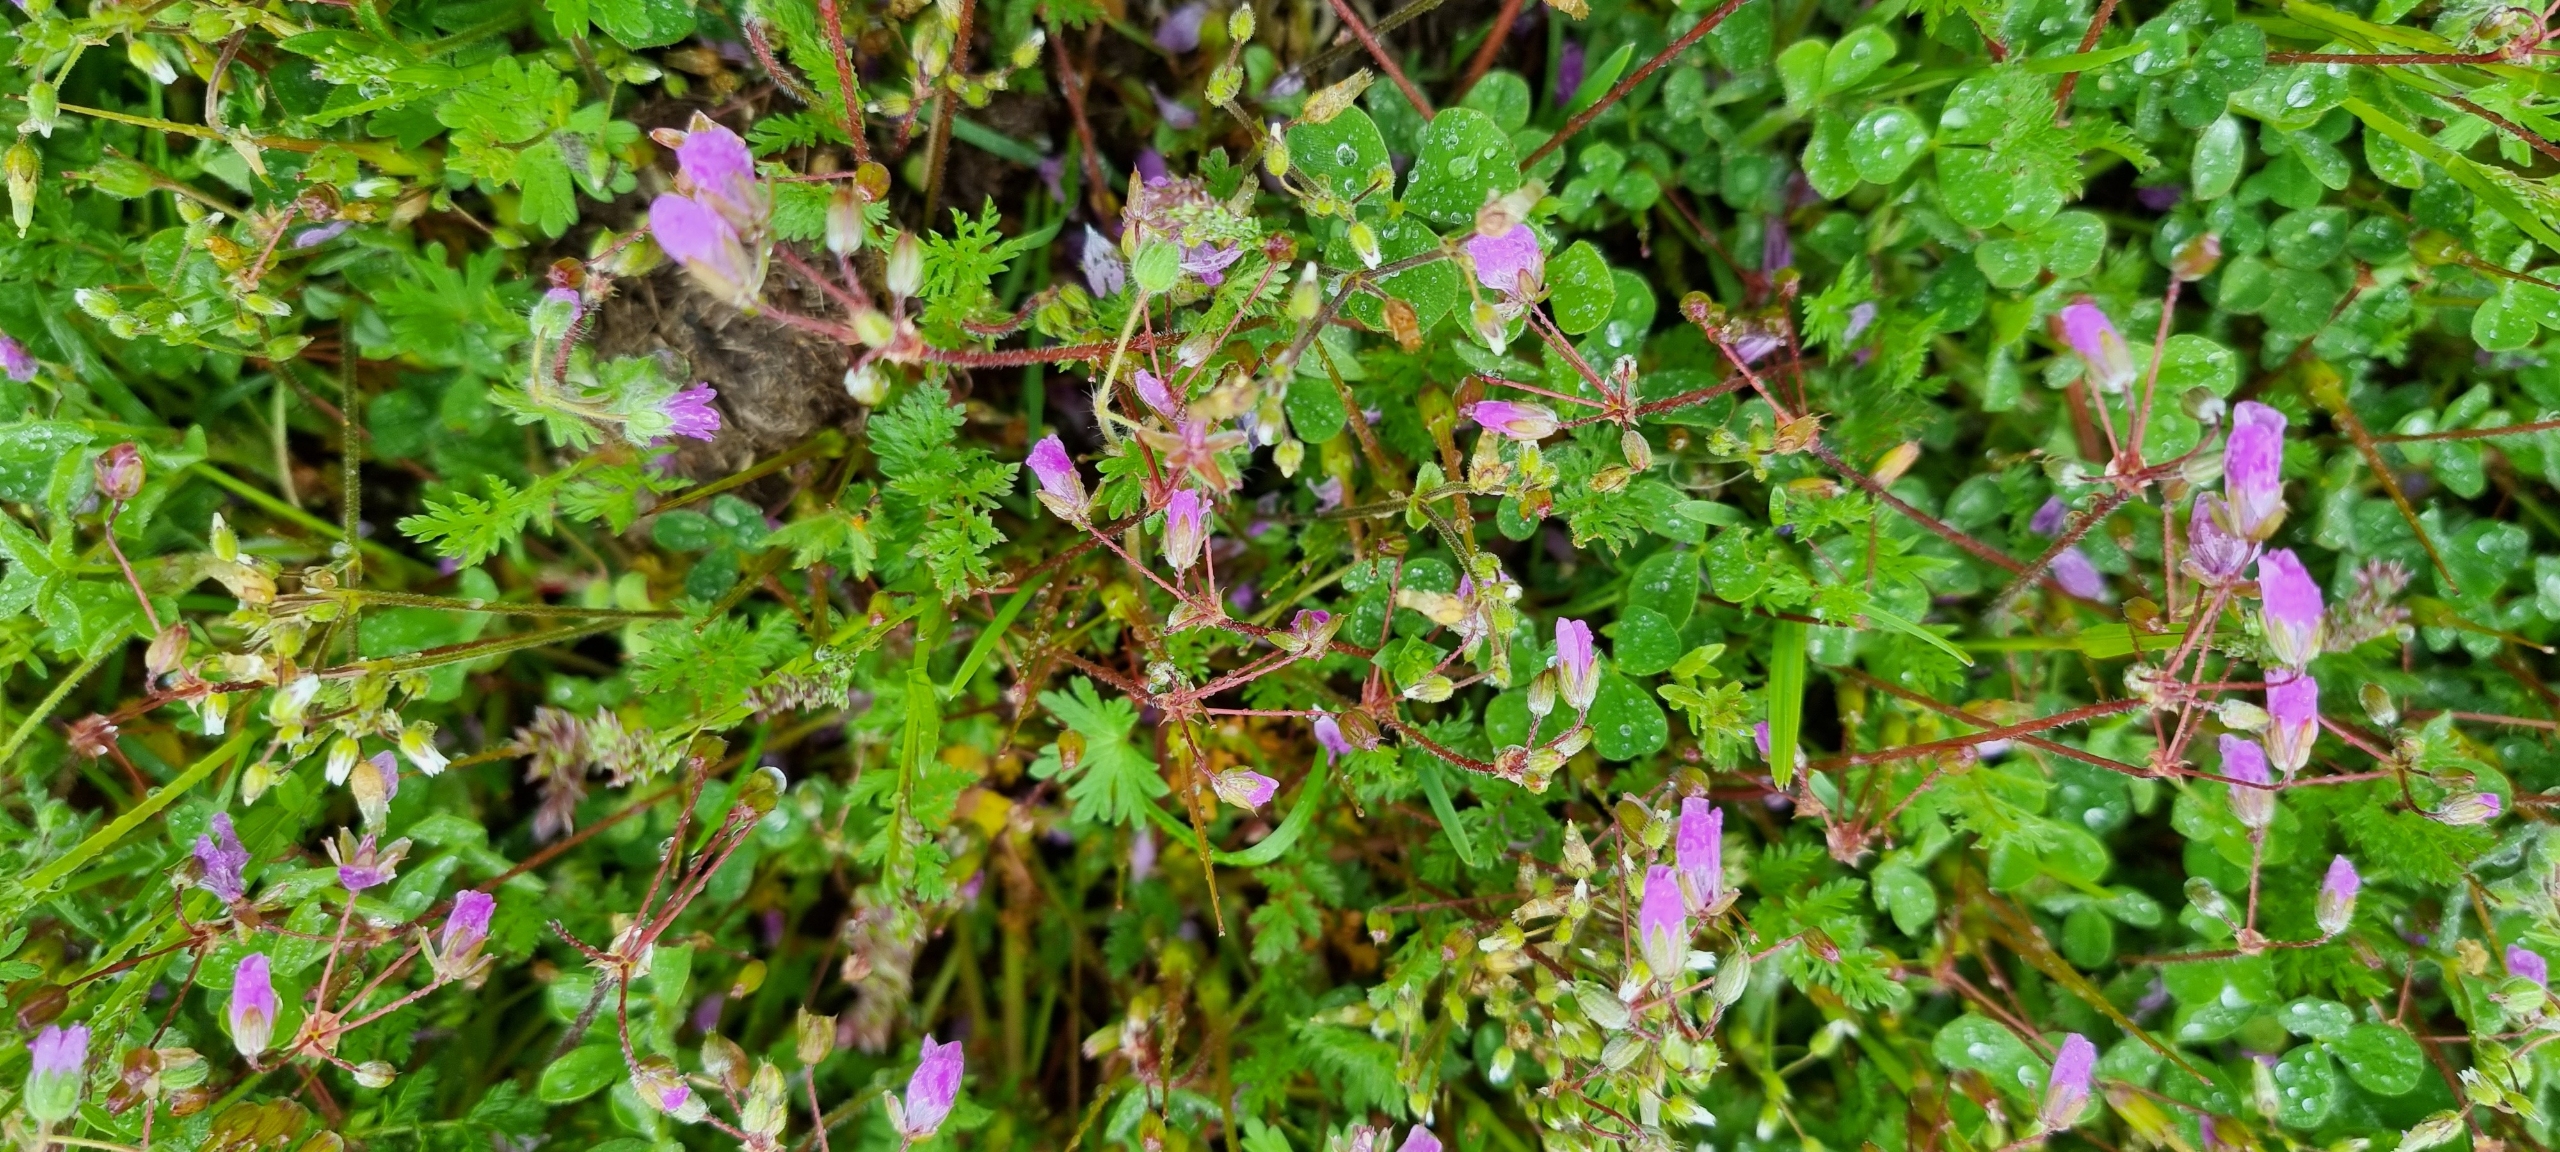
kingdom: Plantae
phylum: Tracheophyta
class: Magnoliopsida
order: Geraniales
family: Geraniaceae
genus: Erodium
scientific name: Erodium cicutarium
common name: Hejrenæb
